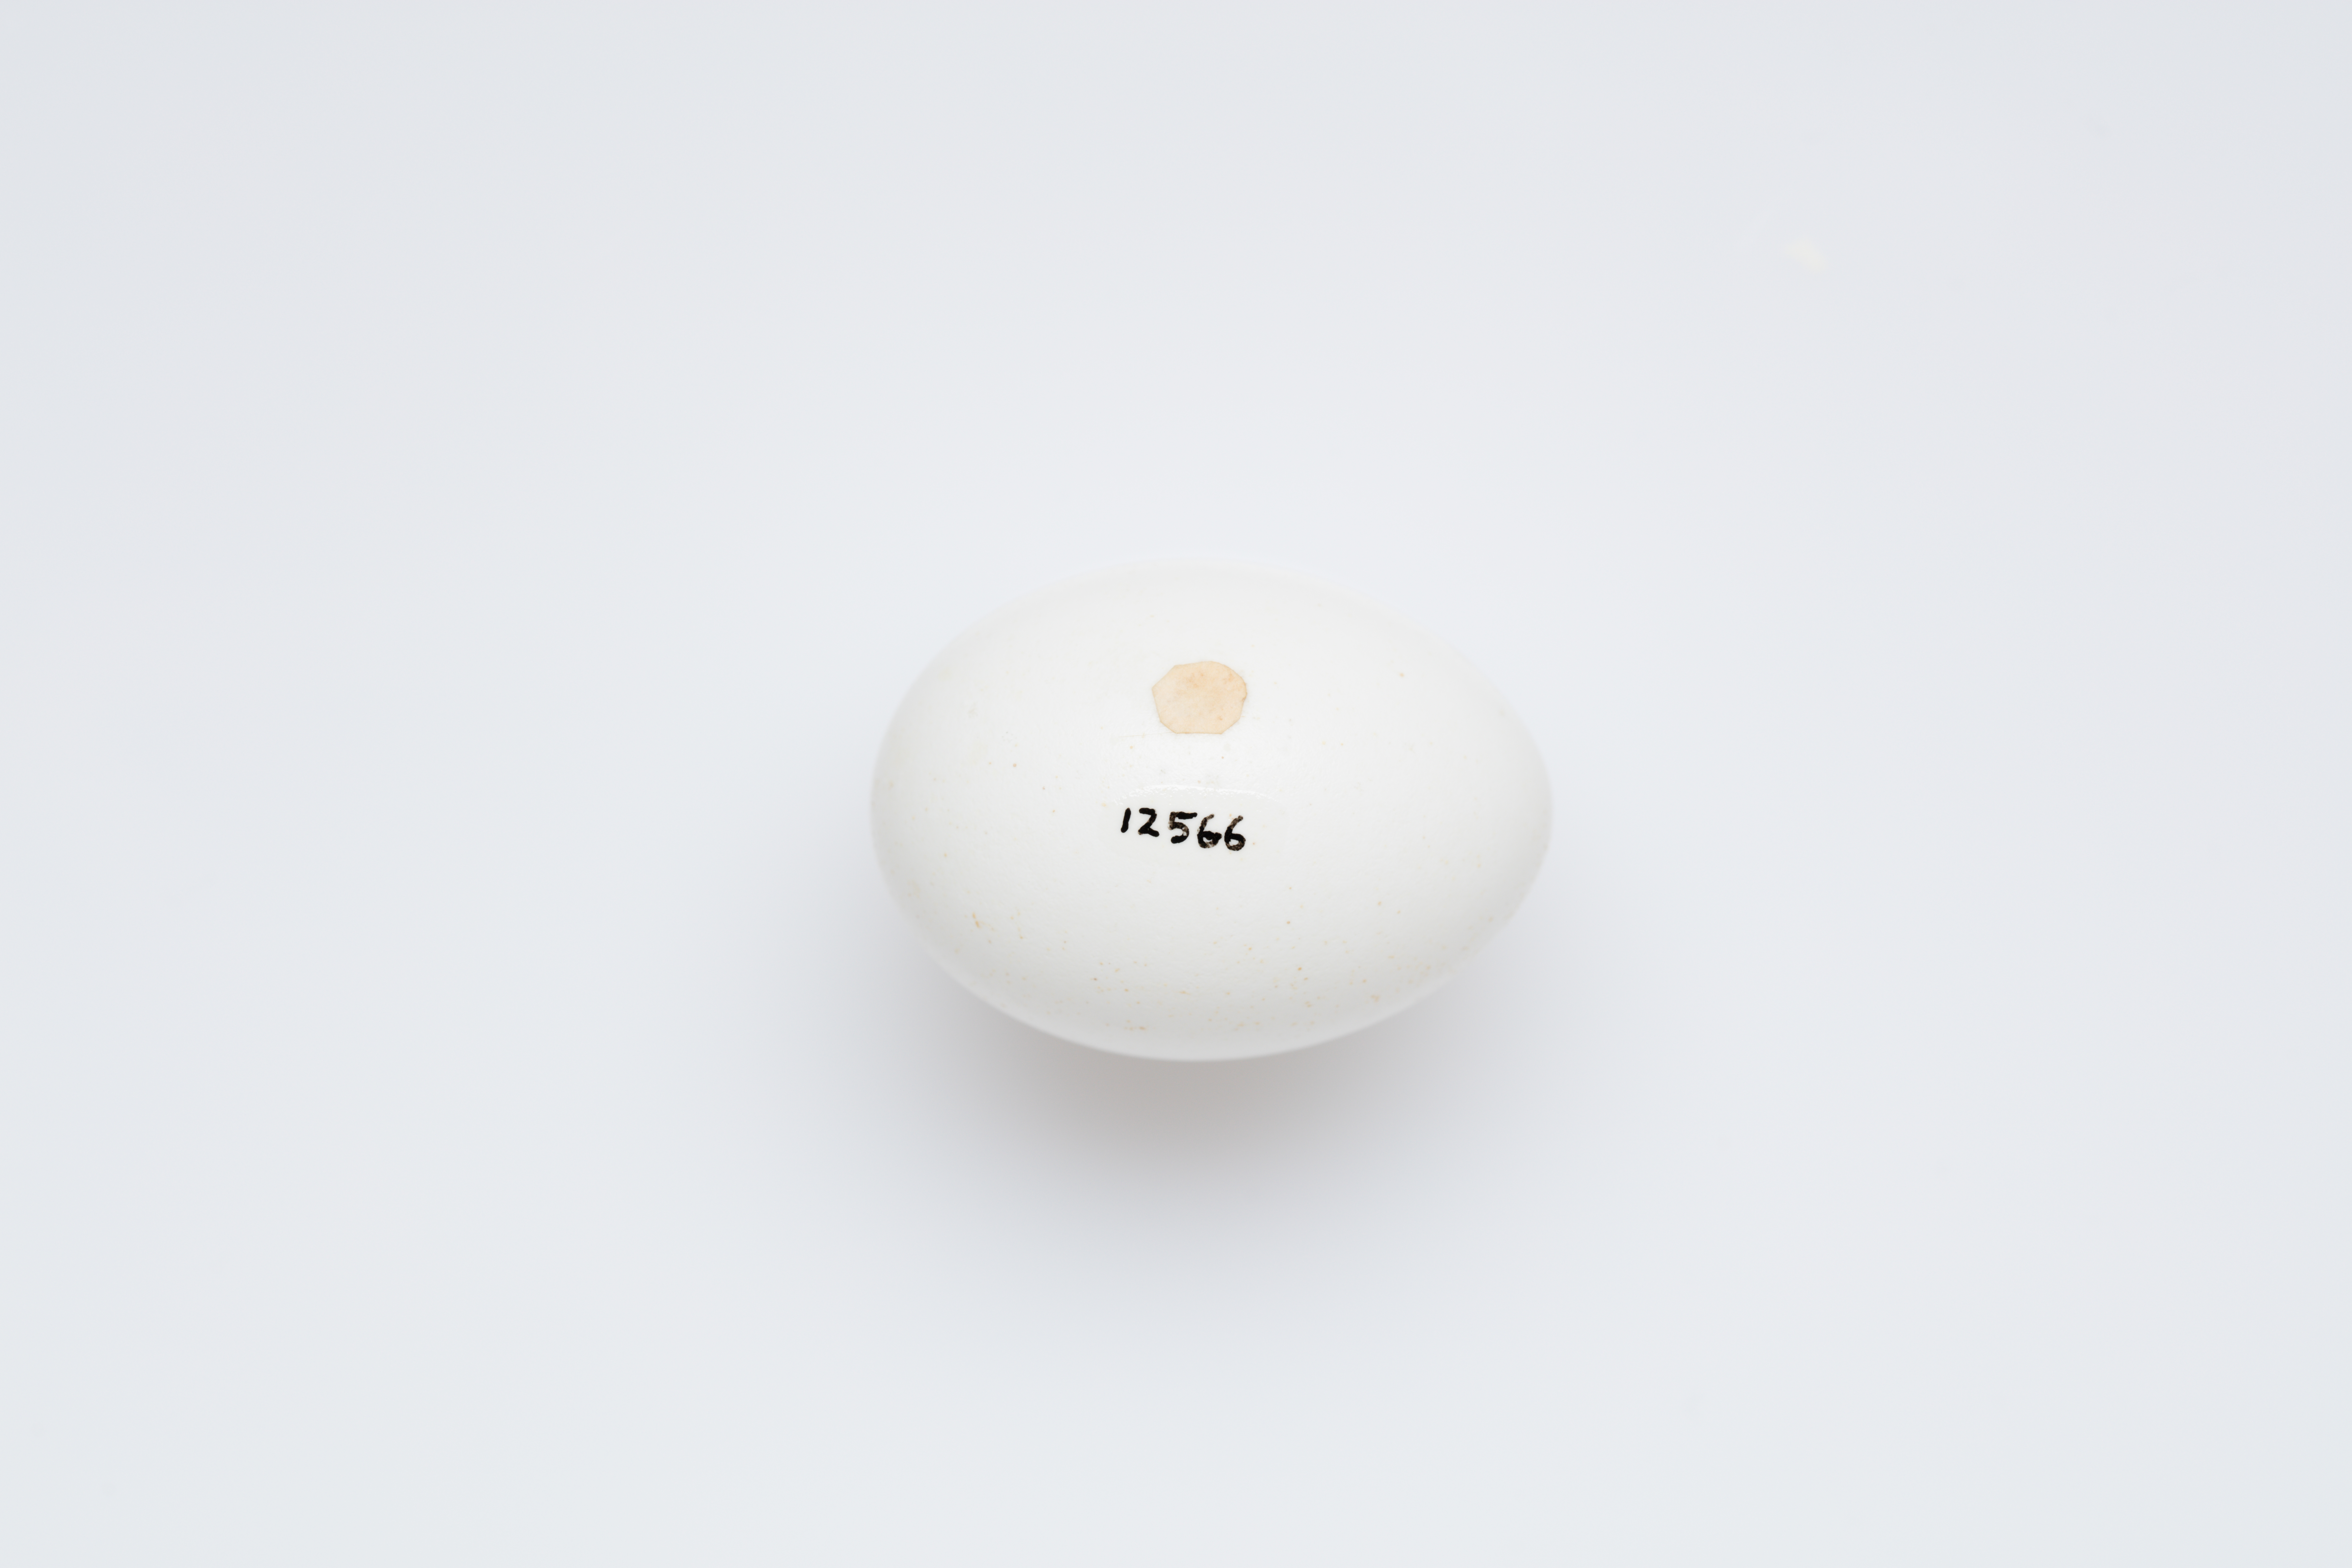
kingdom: Animalia
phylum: Chordata
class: Aves
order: Columbiformes
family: Columbidae
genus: Phaps
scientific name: Phaps elegans
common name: Brush bronzewing
